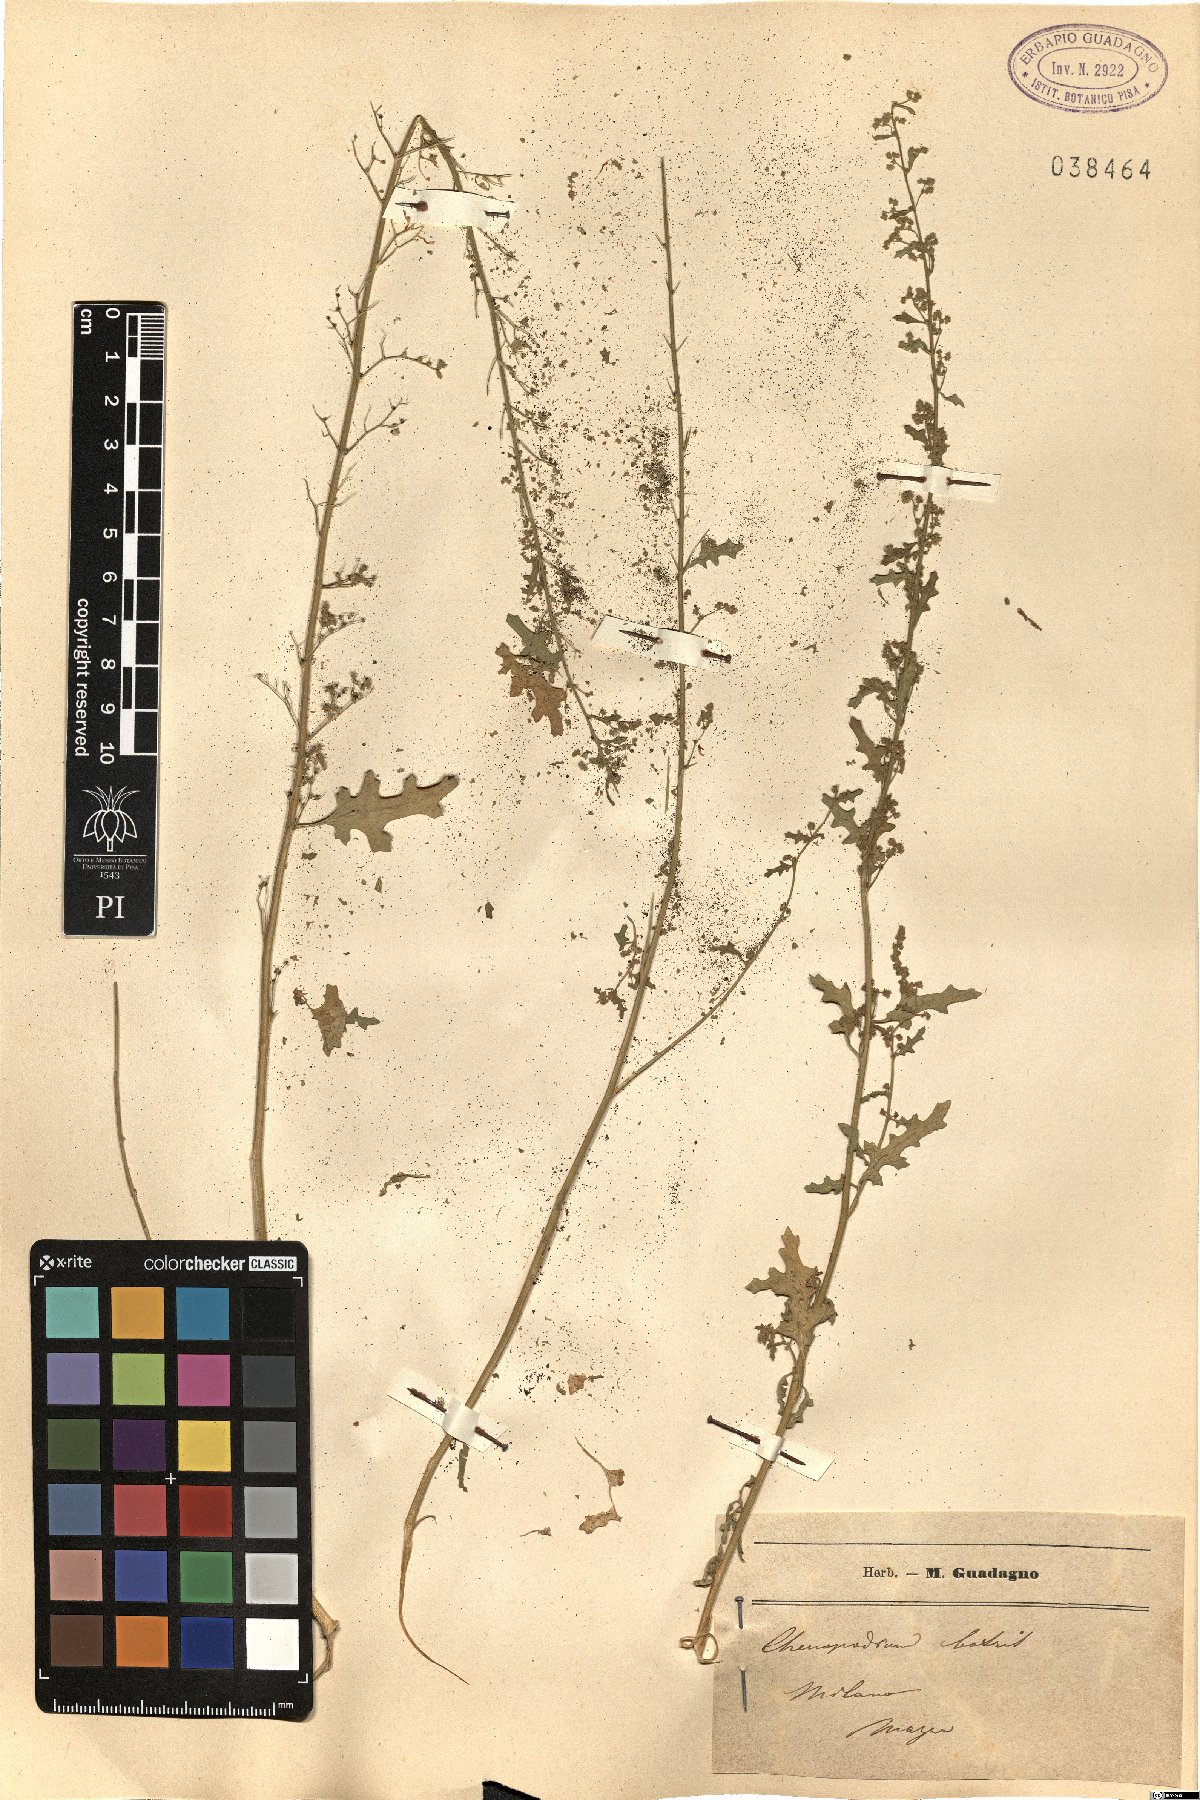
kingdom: Plantae
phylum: Tracheophyta
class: Magnoliopsida
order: Caryophyllales
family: Amaranthaceae
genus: Dysphania
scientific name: Dysphania botrys
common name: Feather-geranium
